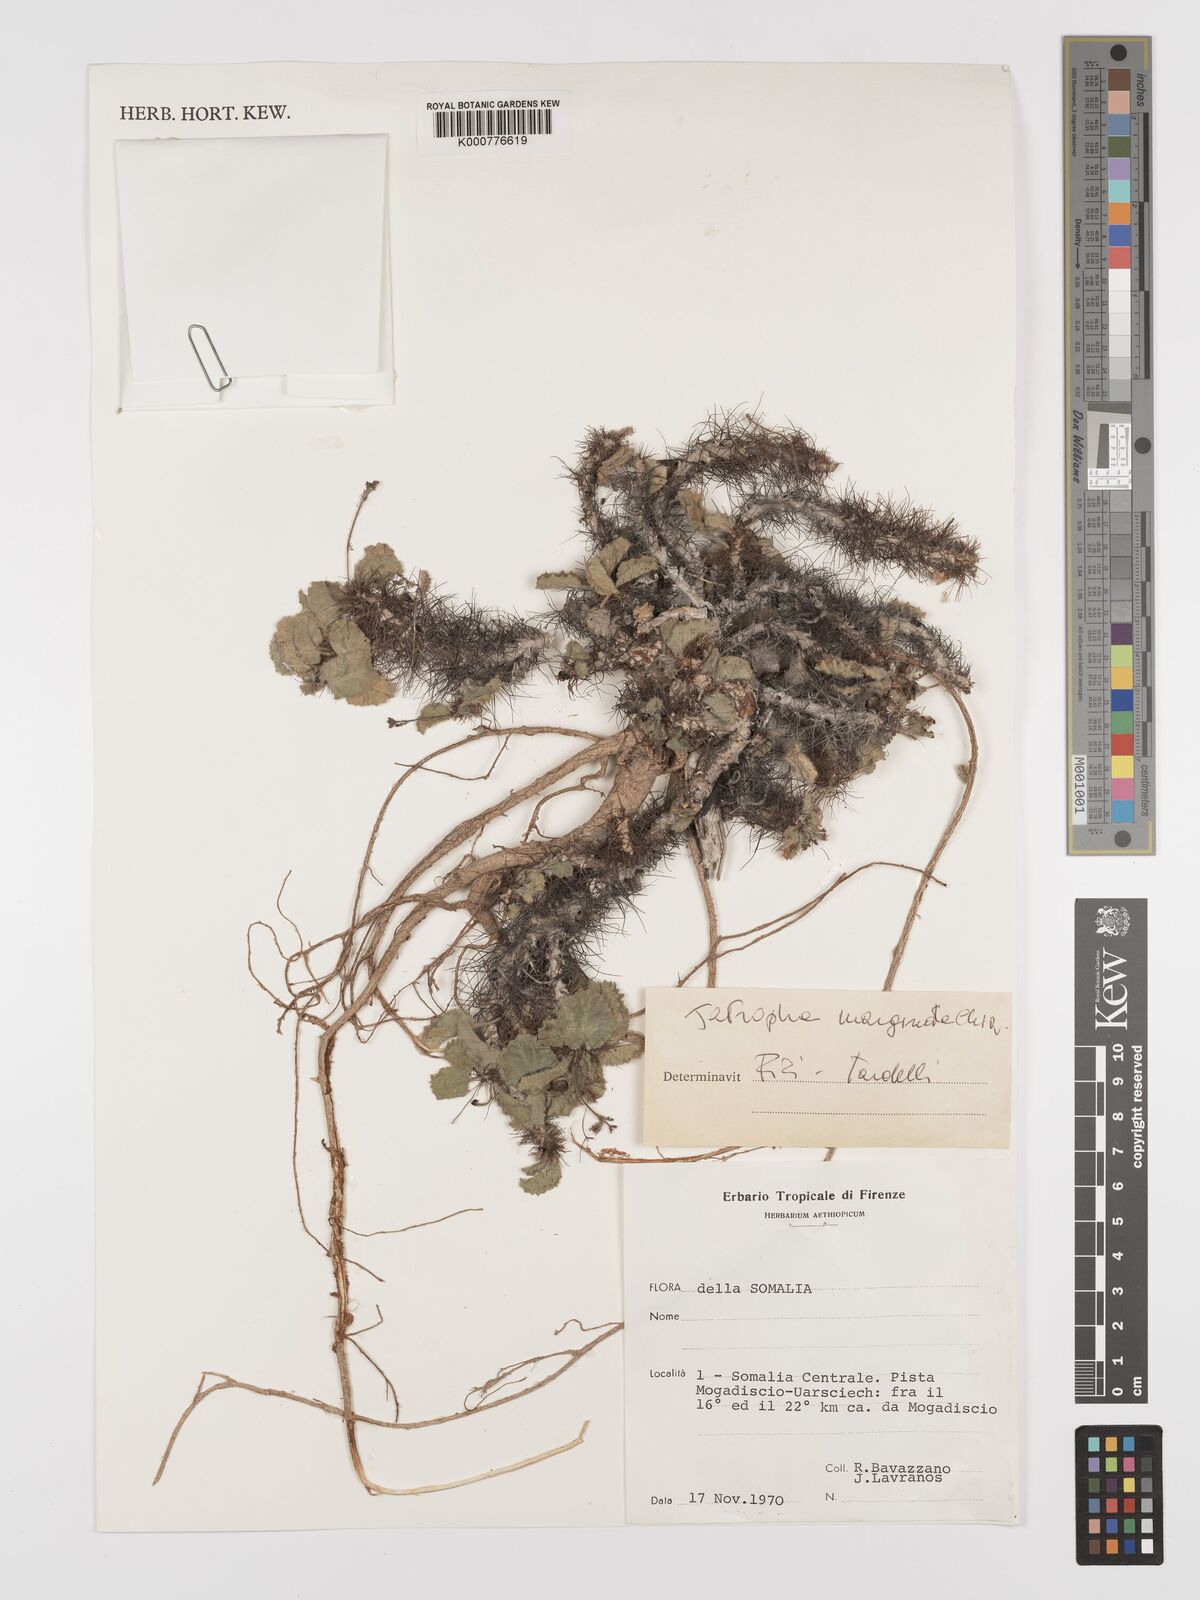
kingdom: Plantae
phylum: Tracheophyta
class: Magnoliopsida
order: Malpighiales
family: Euphorbiaceae
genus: Jatropha
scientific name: Jatropha
